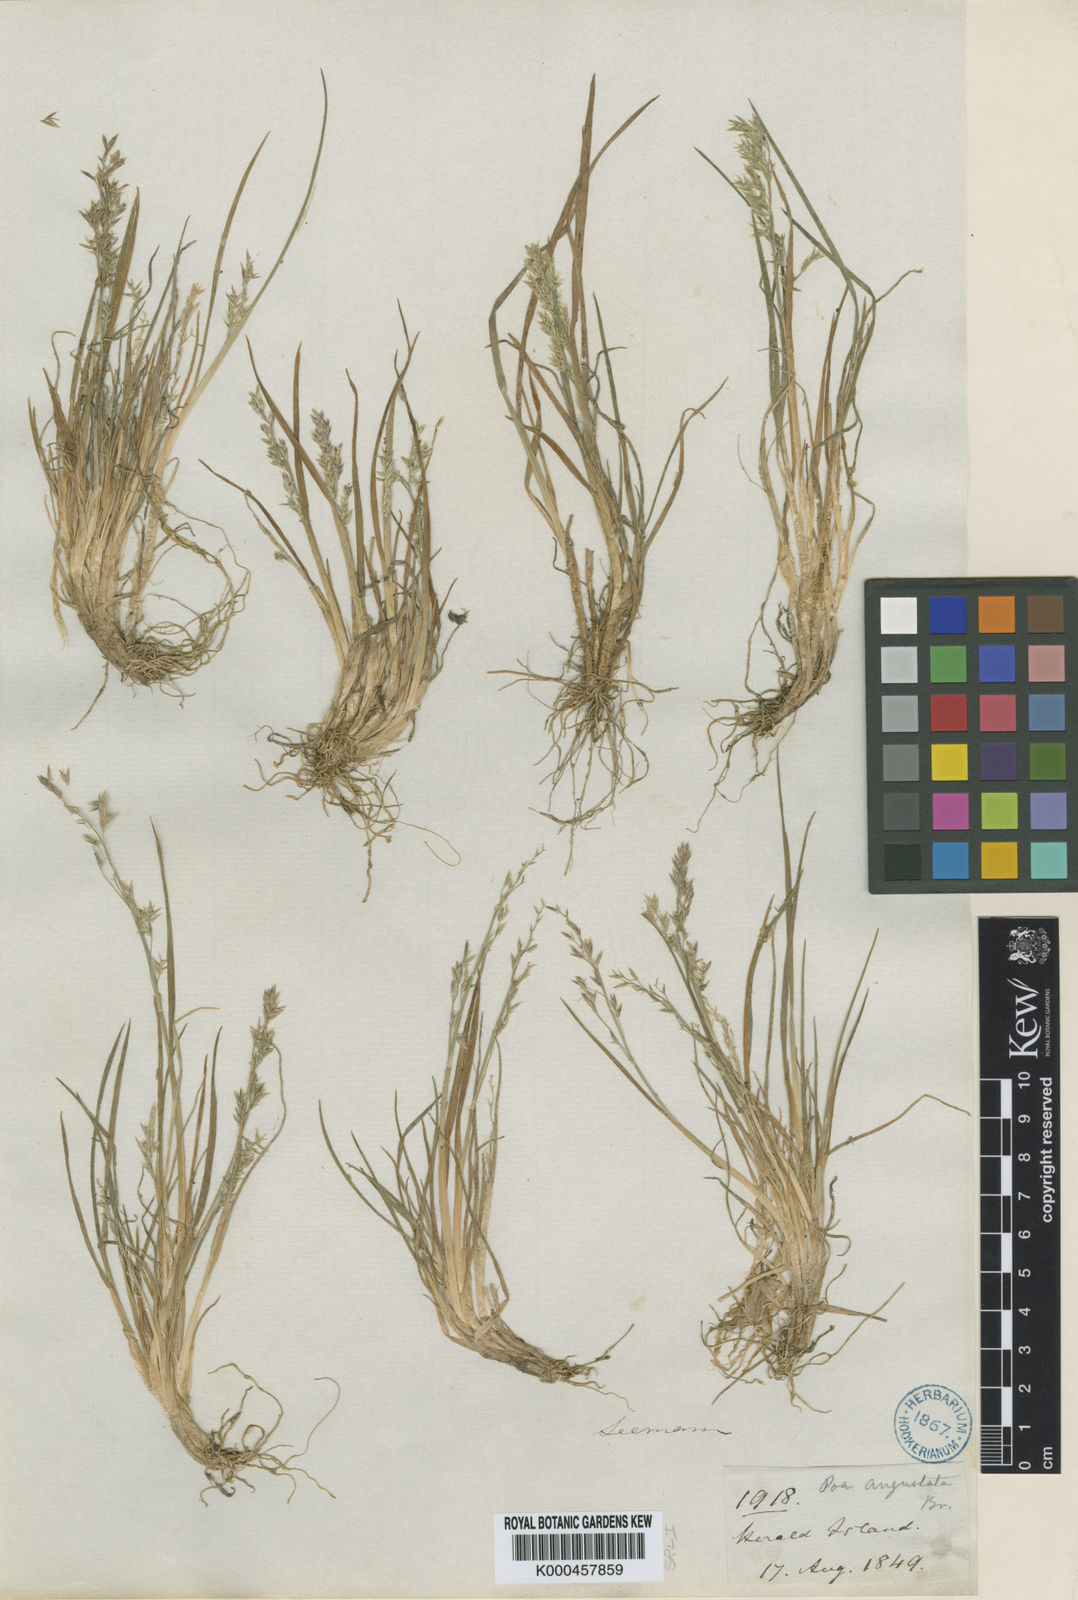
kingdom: Plantae
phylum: Tracheophyta
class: Liliopsida
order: Poales
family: Poaceae
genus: Puccinellia
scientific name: Puccinellia angustata
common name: Narrow alkaligrass
